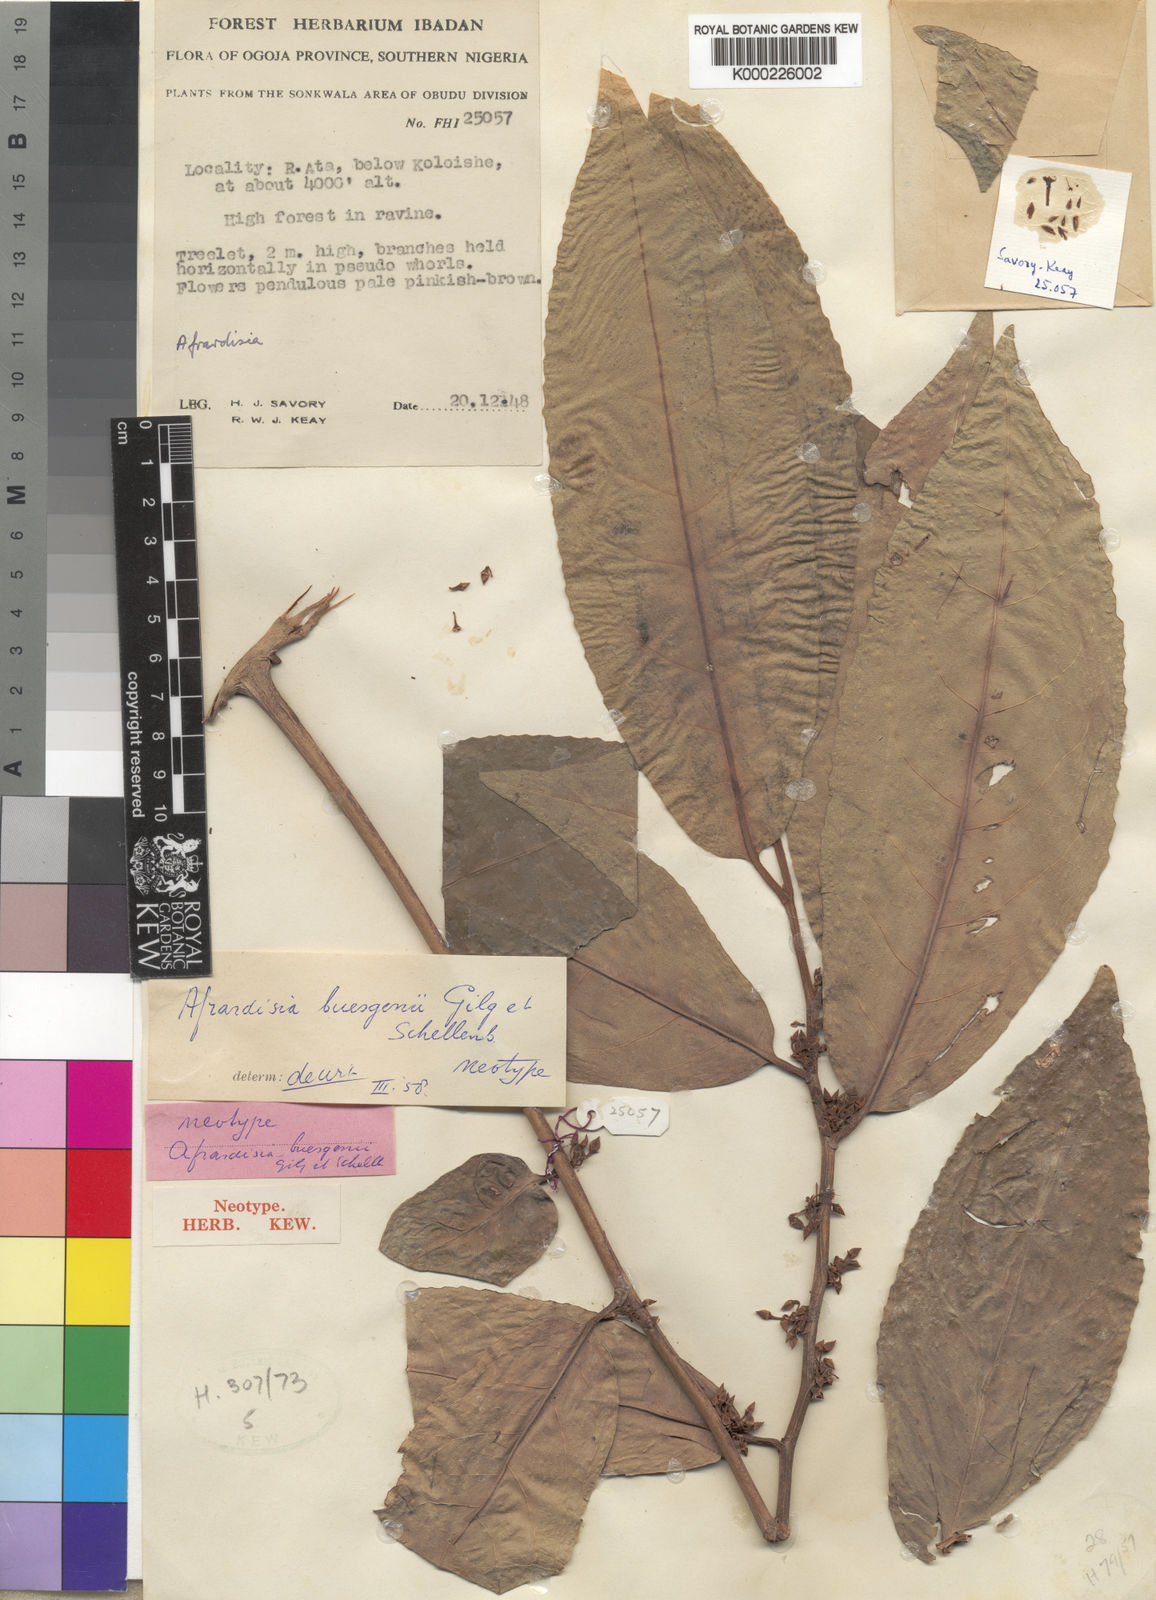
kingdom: Plantae
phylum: Tracheophyta
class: Magnoliopsida
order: Ericales
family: Primulaceae
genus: Ardisia
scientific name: Ardisia buesgenii
